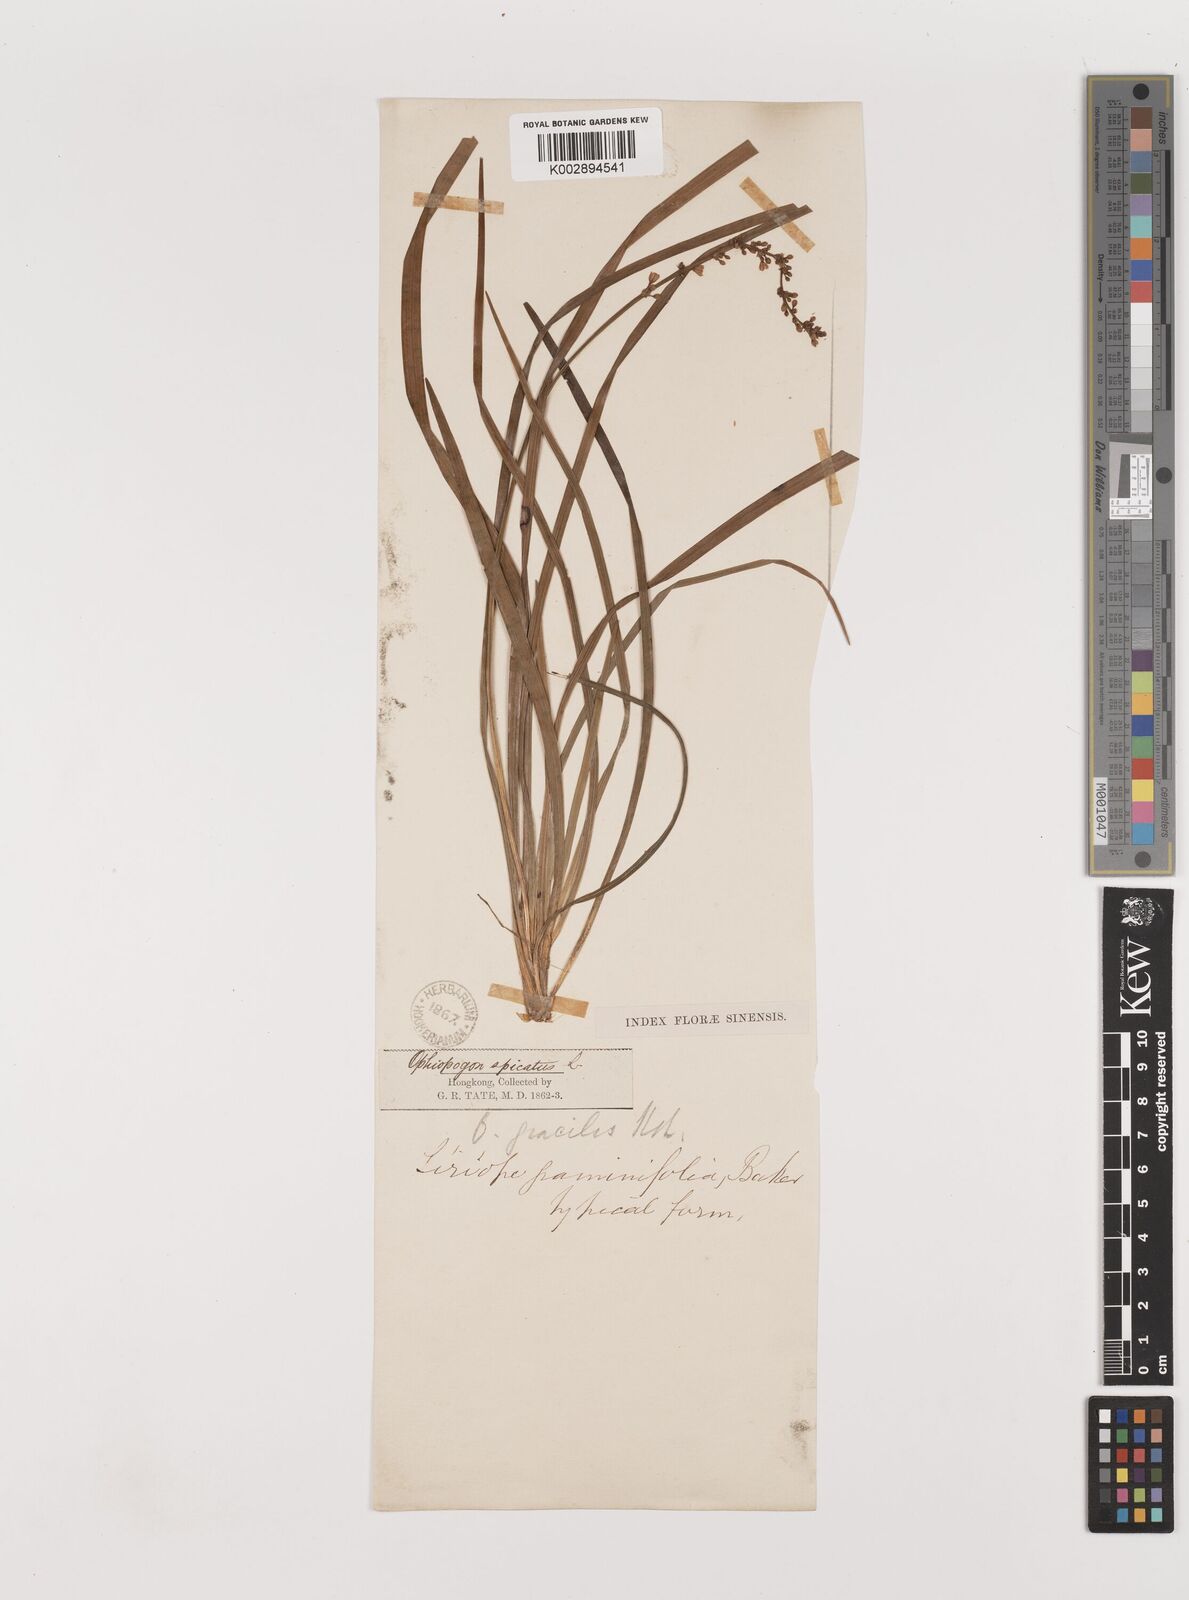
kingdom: Plantae
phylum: Tracheophyta
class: Liliopsida
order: Asparagales
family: Asparagaceae
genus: Liriope
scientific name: Liriope spicata
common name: Creeping liriope
